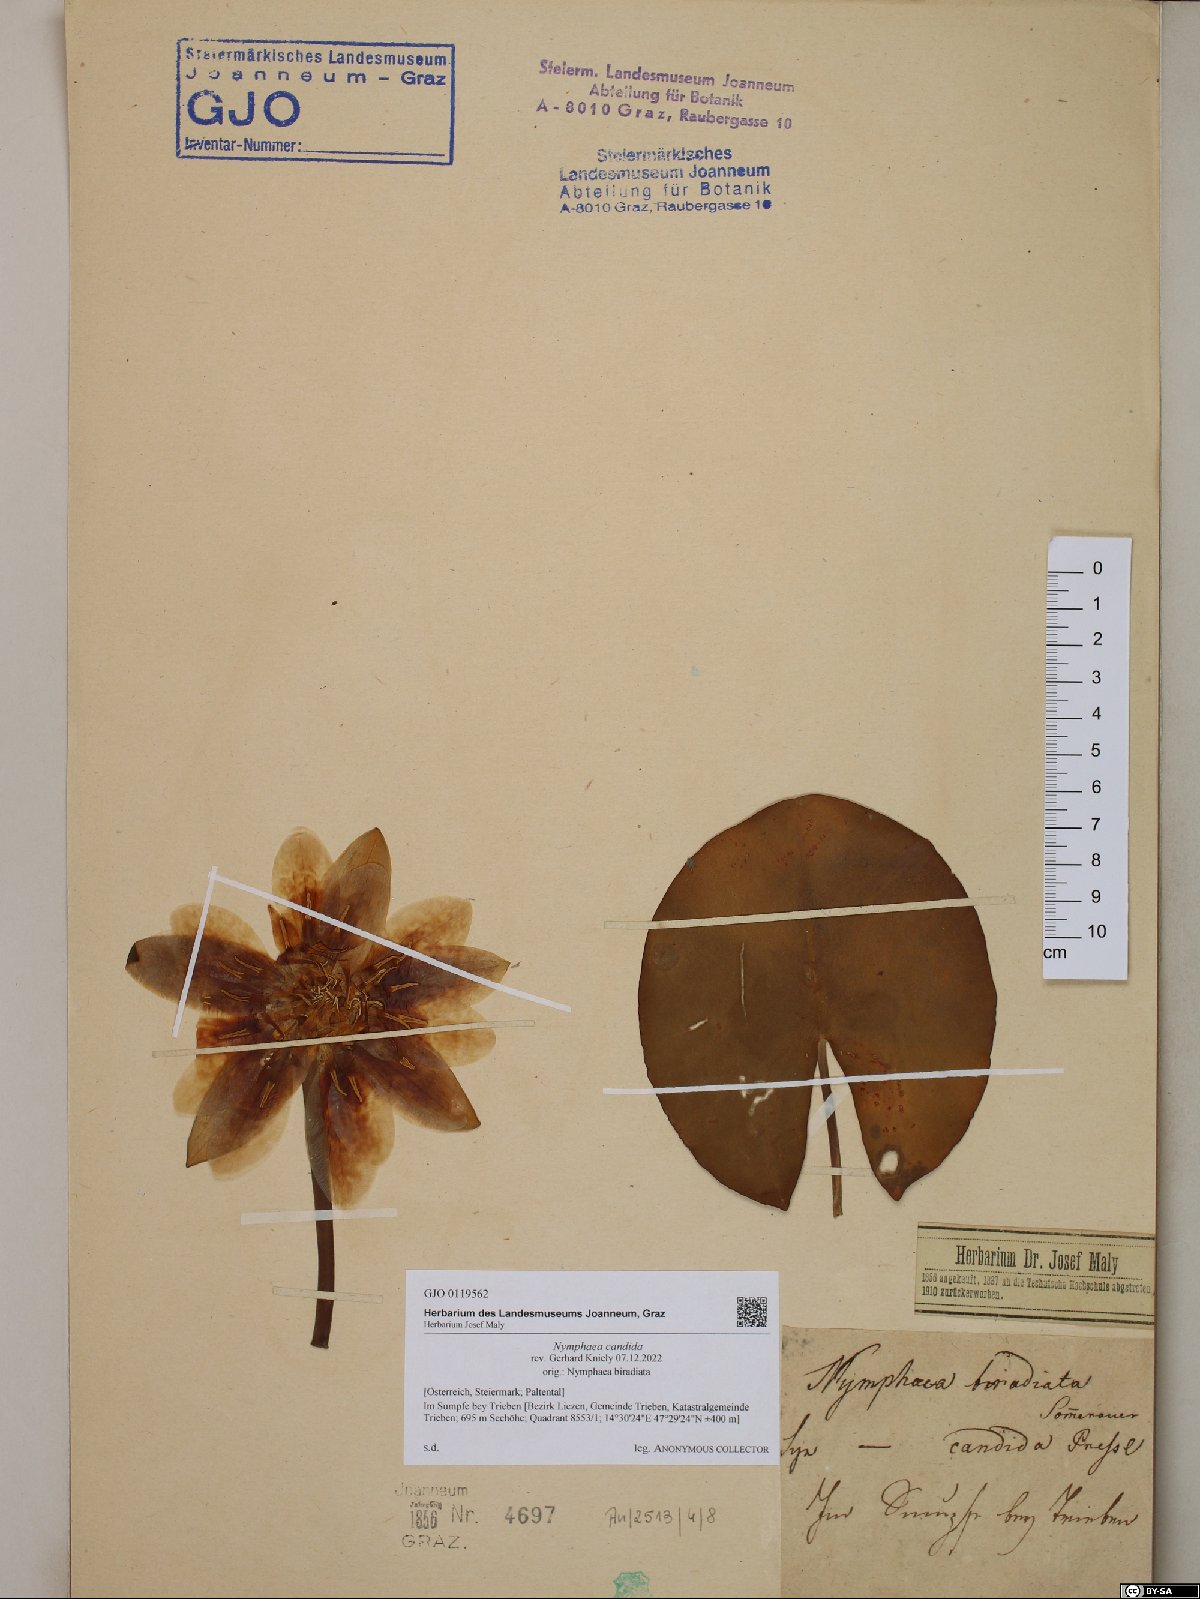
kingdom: Plantae
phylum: Tracheophyta
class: Magnoliopsida
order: Nymphaeales
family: Nymphaeaceae
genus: Nymphaea
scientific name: Nymphaea candida
